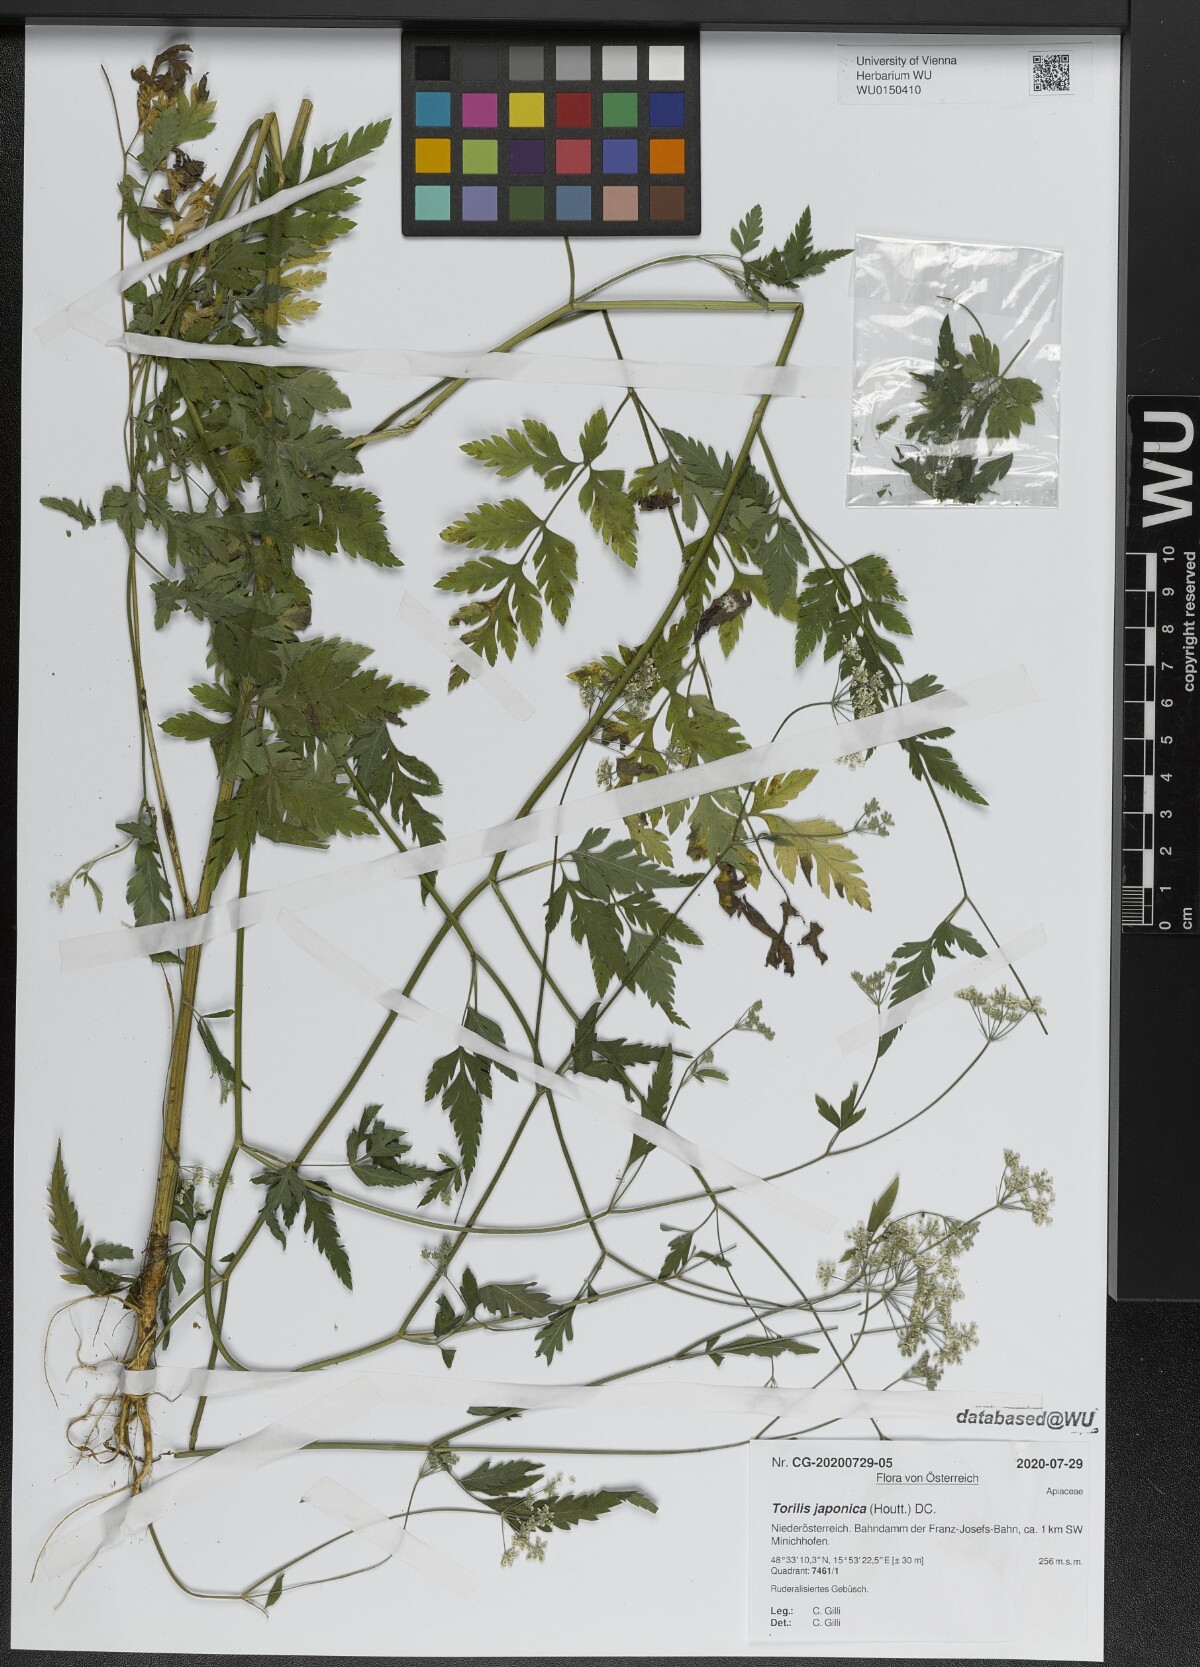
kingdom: Plantae
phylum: Tracheophyta
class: Magnoliopsida
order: Apiales
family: Apiaceae
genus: Torilis
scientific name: Torilis japonica
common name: Upright hedge-parsley
